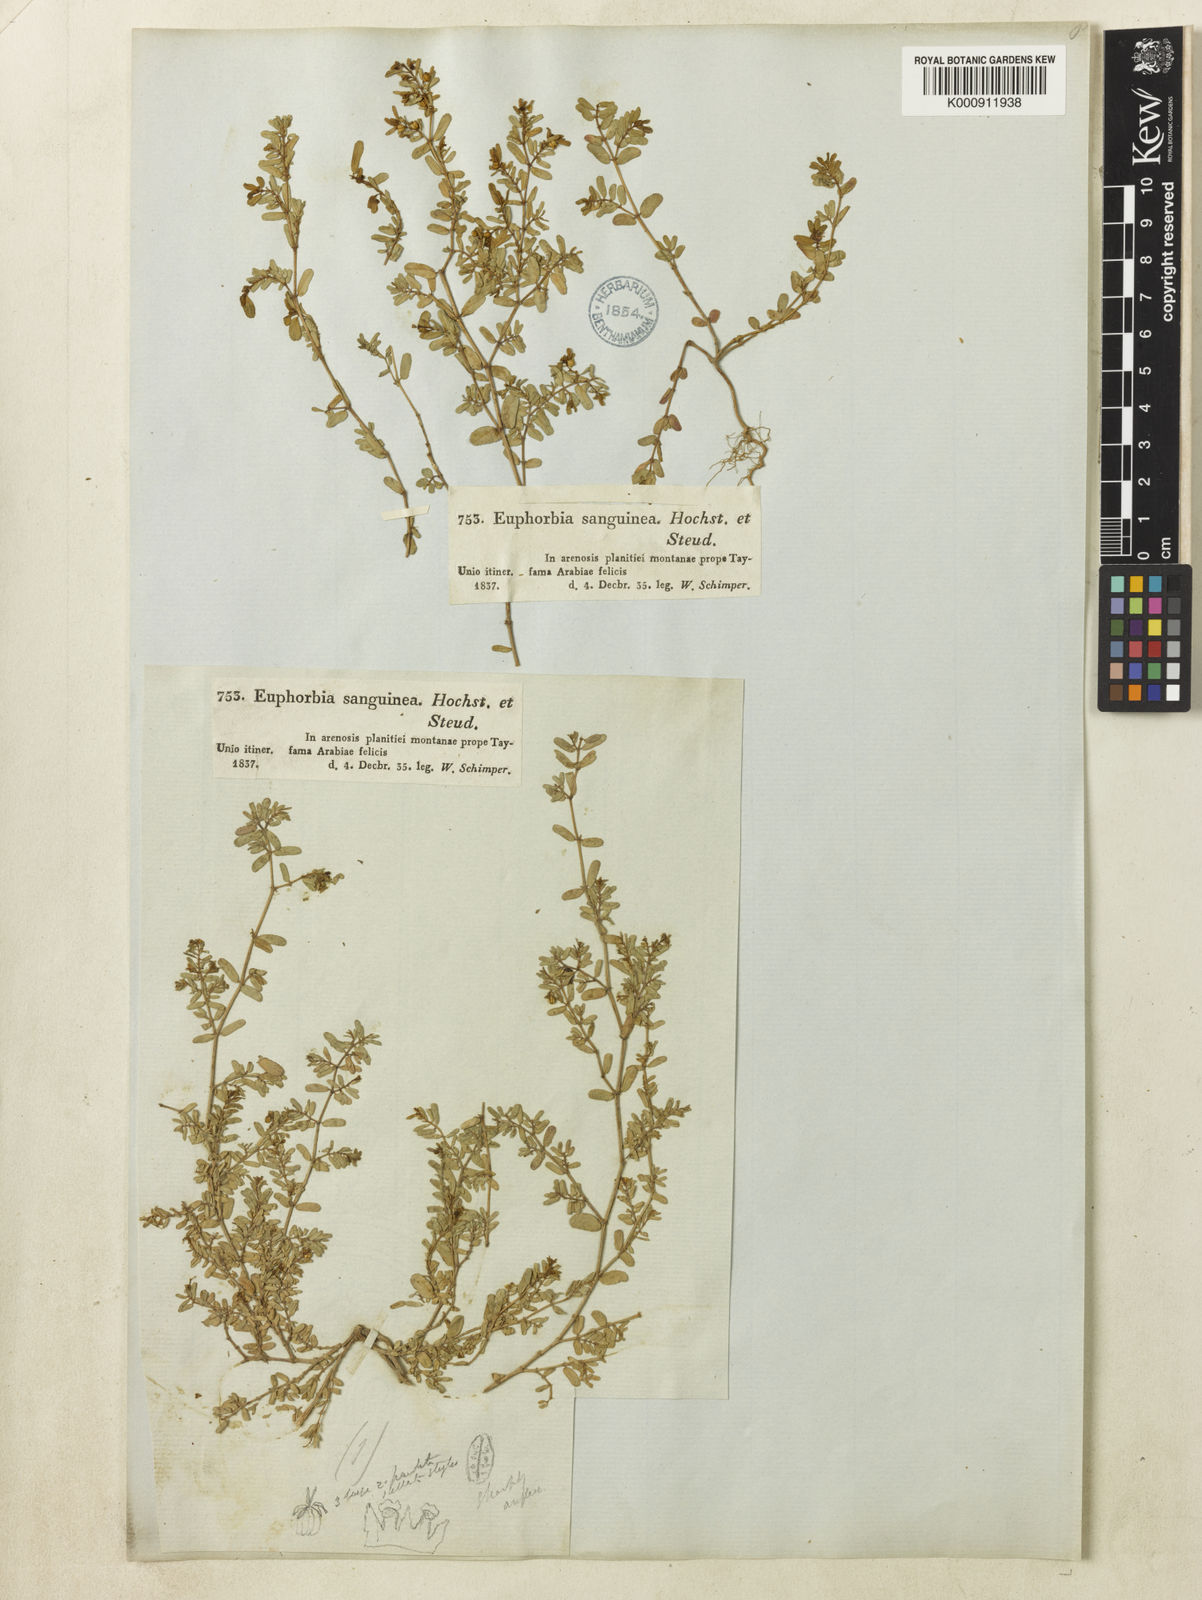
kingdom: Plantae
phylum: Tracheophyta
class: Magnoliopsida
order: Malpighiales
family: Euphorbiaceae
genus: Euphorbia
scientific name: Euphorbia
